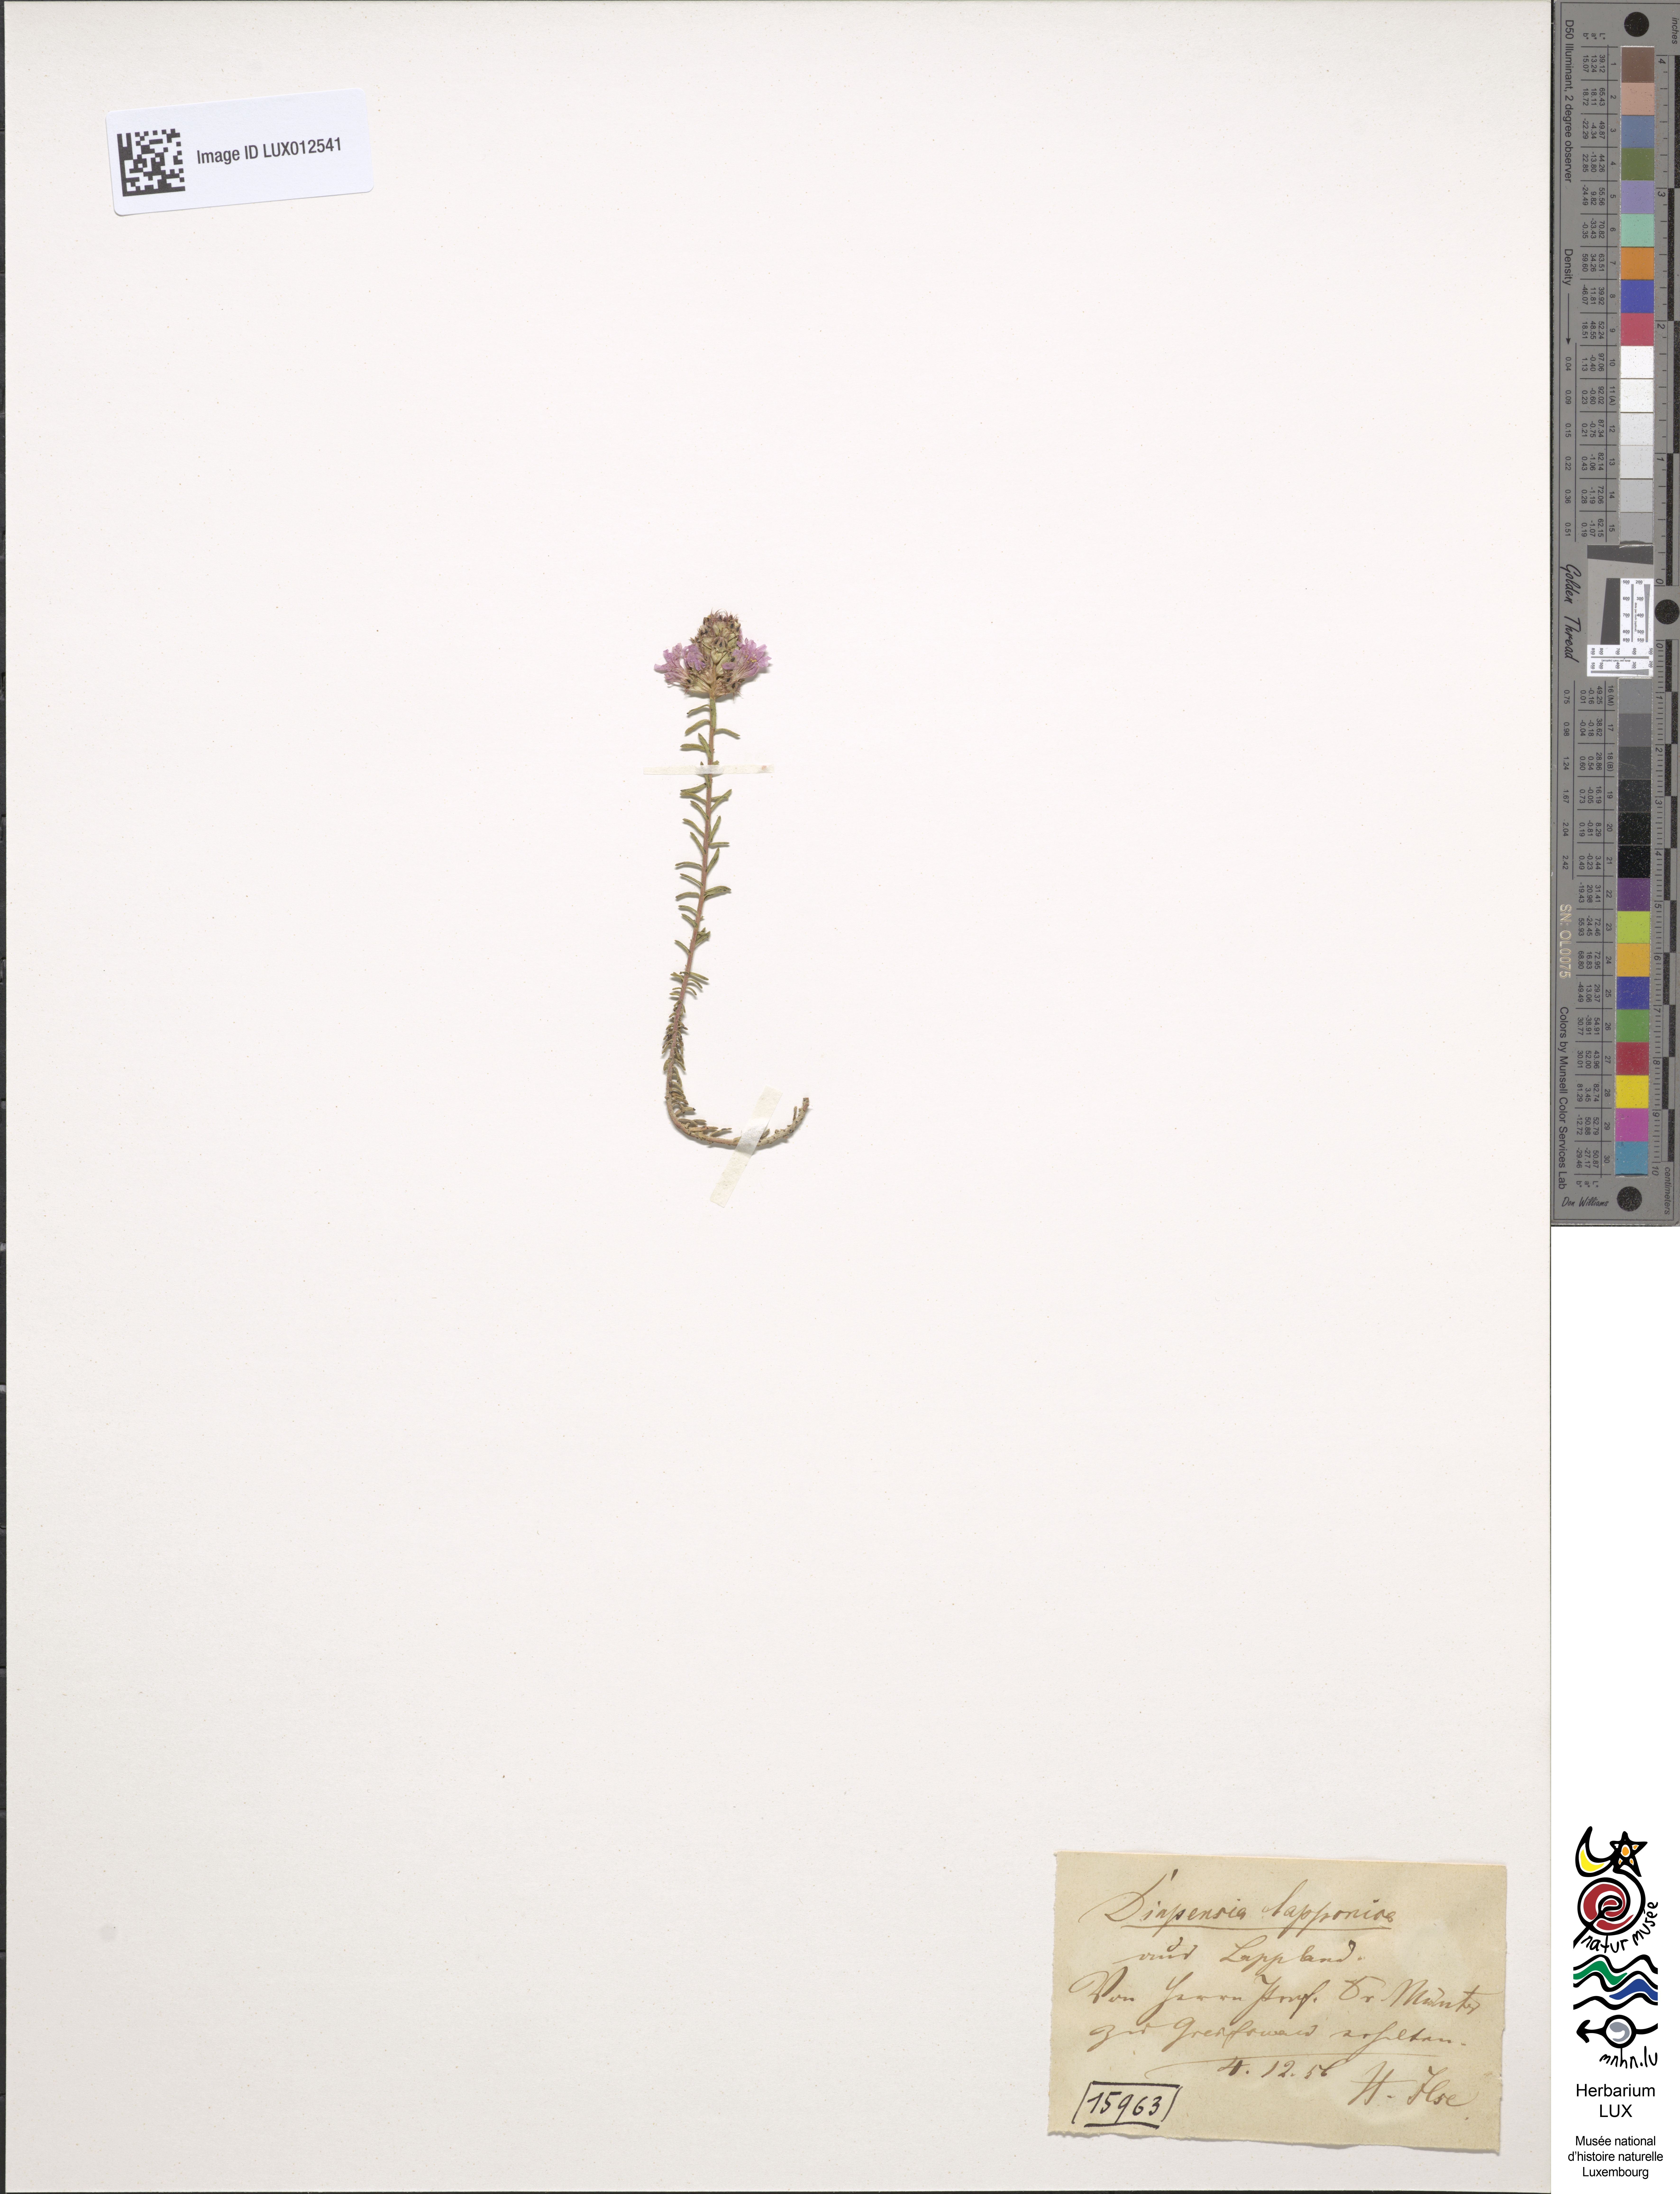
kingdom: Plantae
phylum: Tracheophyta
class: Magnoliopsida
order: Ericales
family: Diapensiaceae
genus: Diapensia
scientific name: Diapensia lapponica
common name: Diapensia
